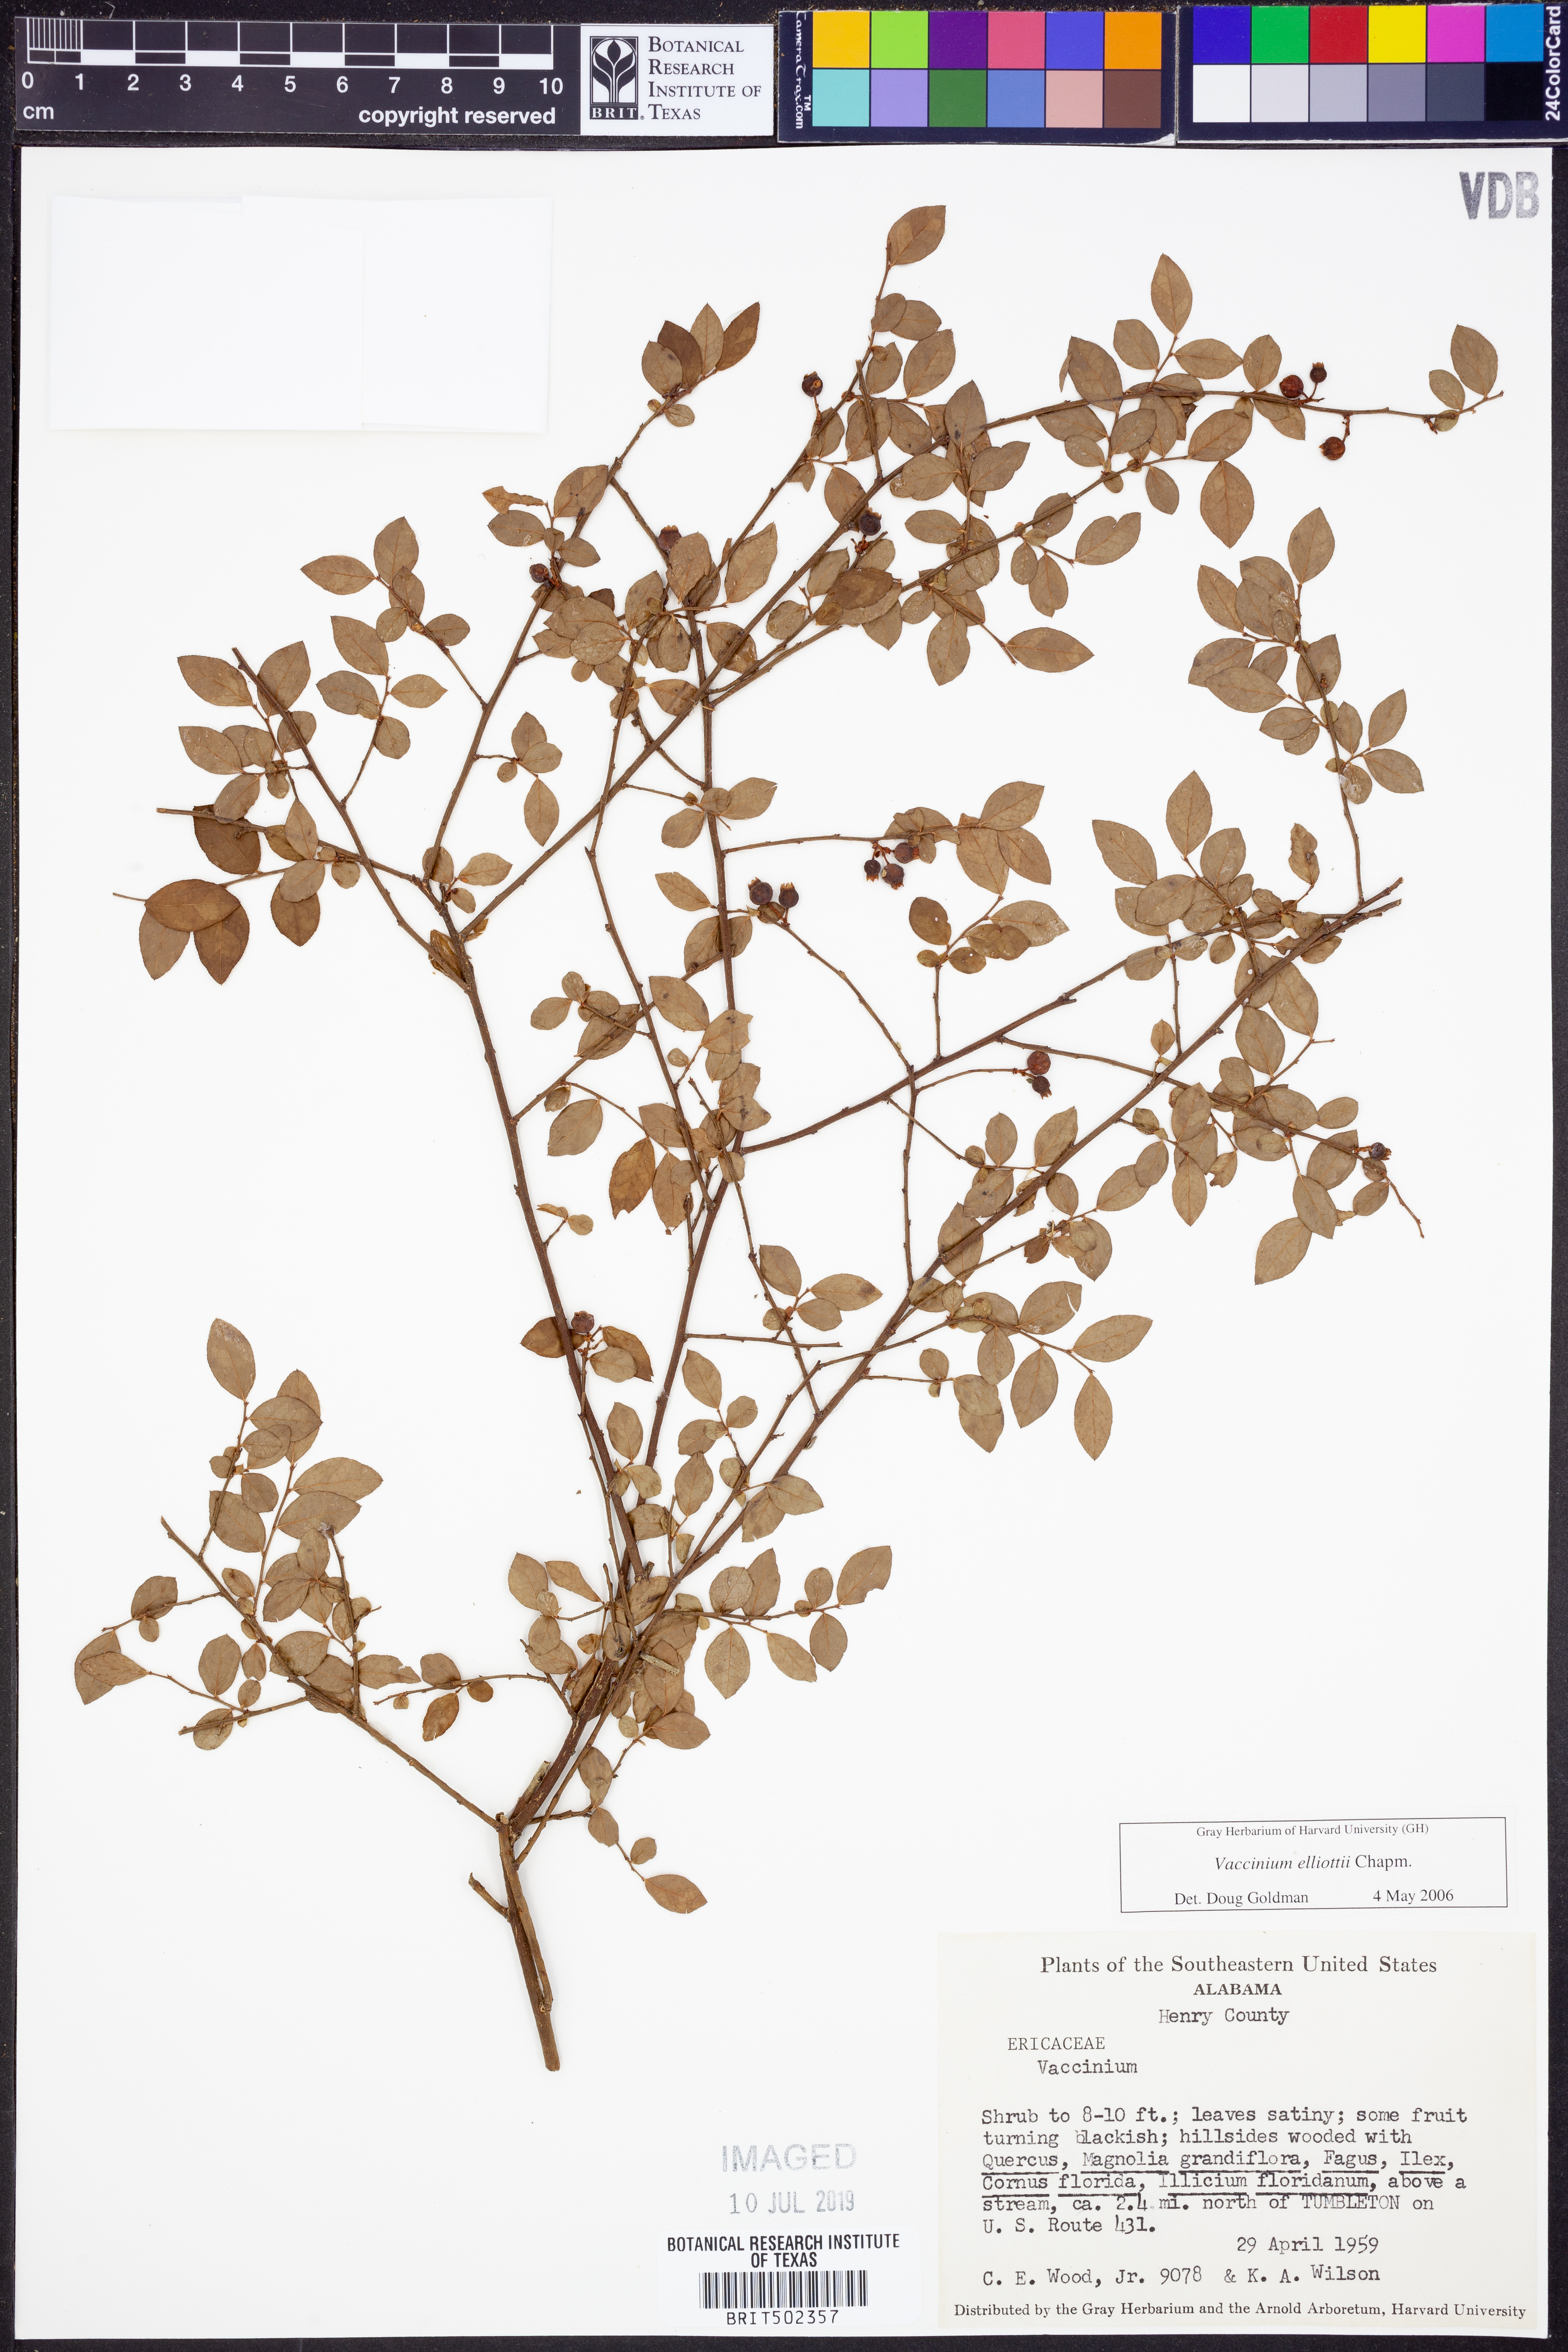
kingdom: Plantae
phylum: Tracheophyta
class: Magnoliopsida
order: Ericales
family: Ericaceae
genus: Vaccinium
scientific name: Vaccinium corymbosum
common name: Blueberry
